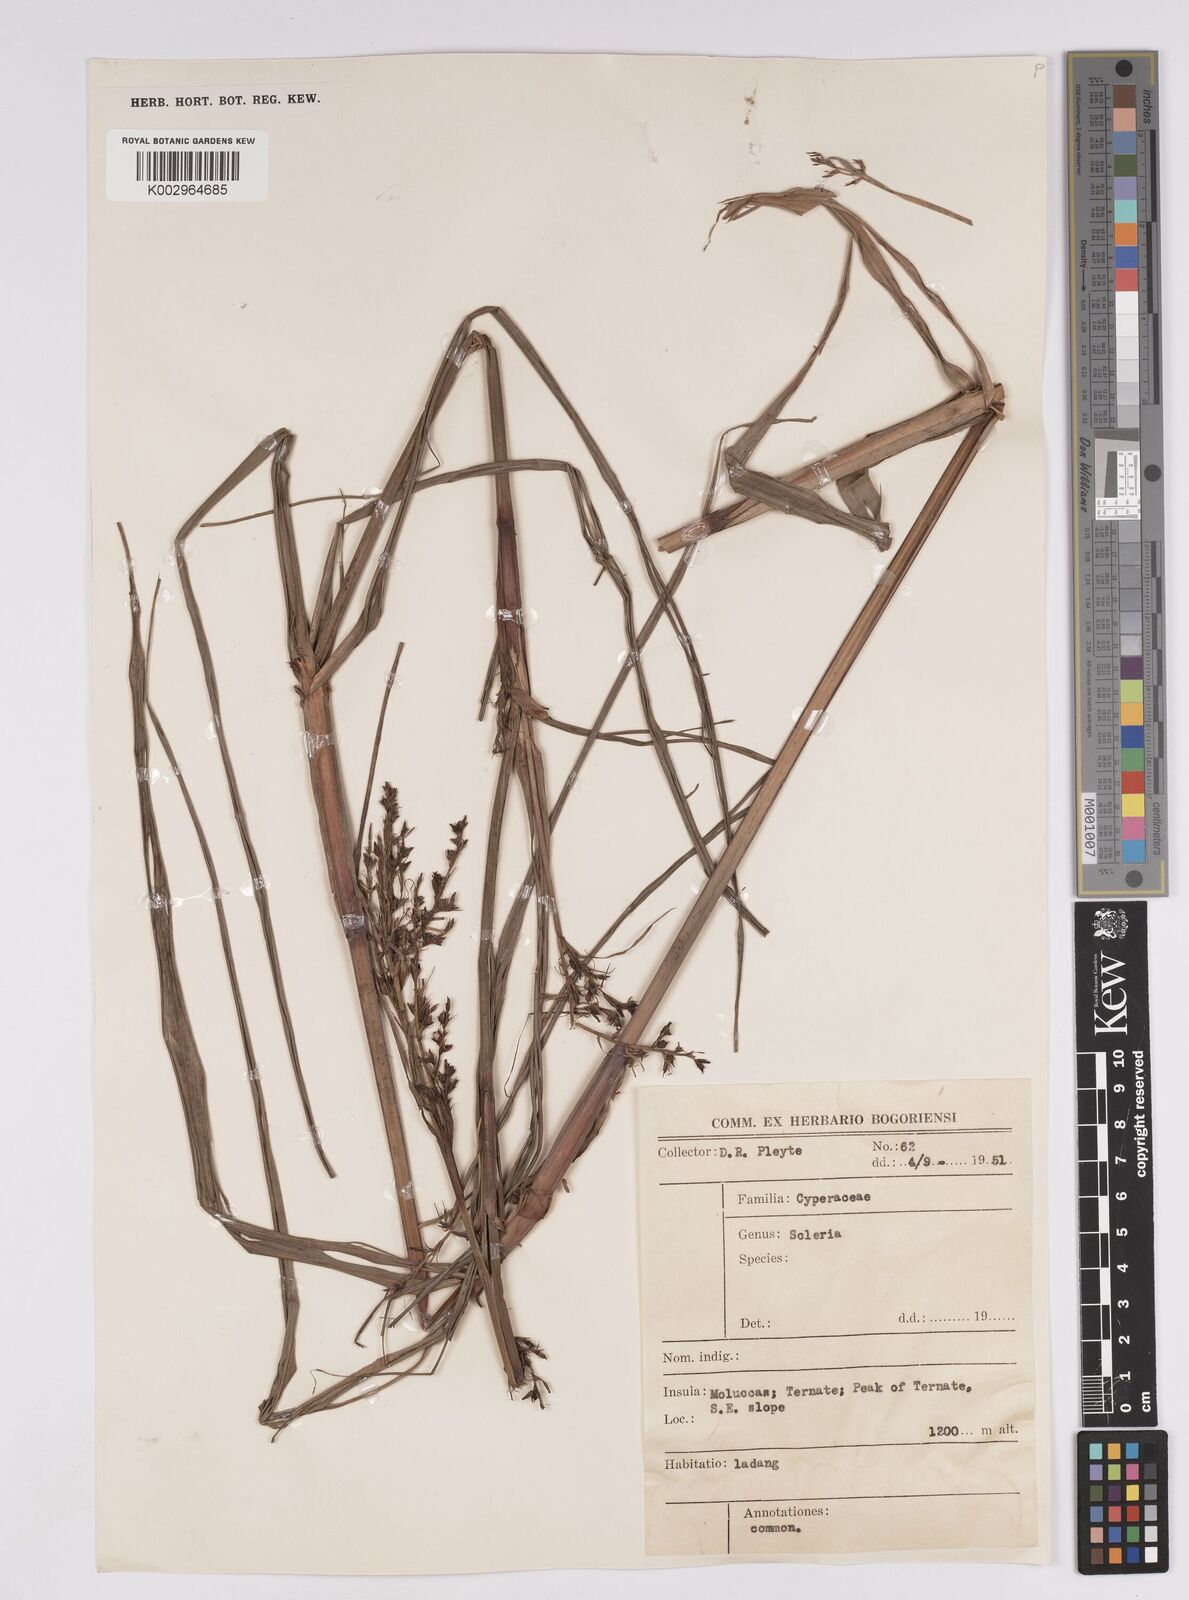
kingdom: Plantae
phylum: Tracheophyta
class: Liliopsida
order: Poales
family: Cyperaceae
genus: Scleria
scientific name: Scleria
